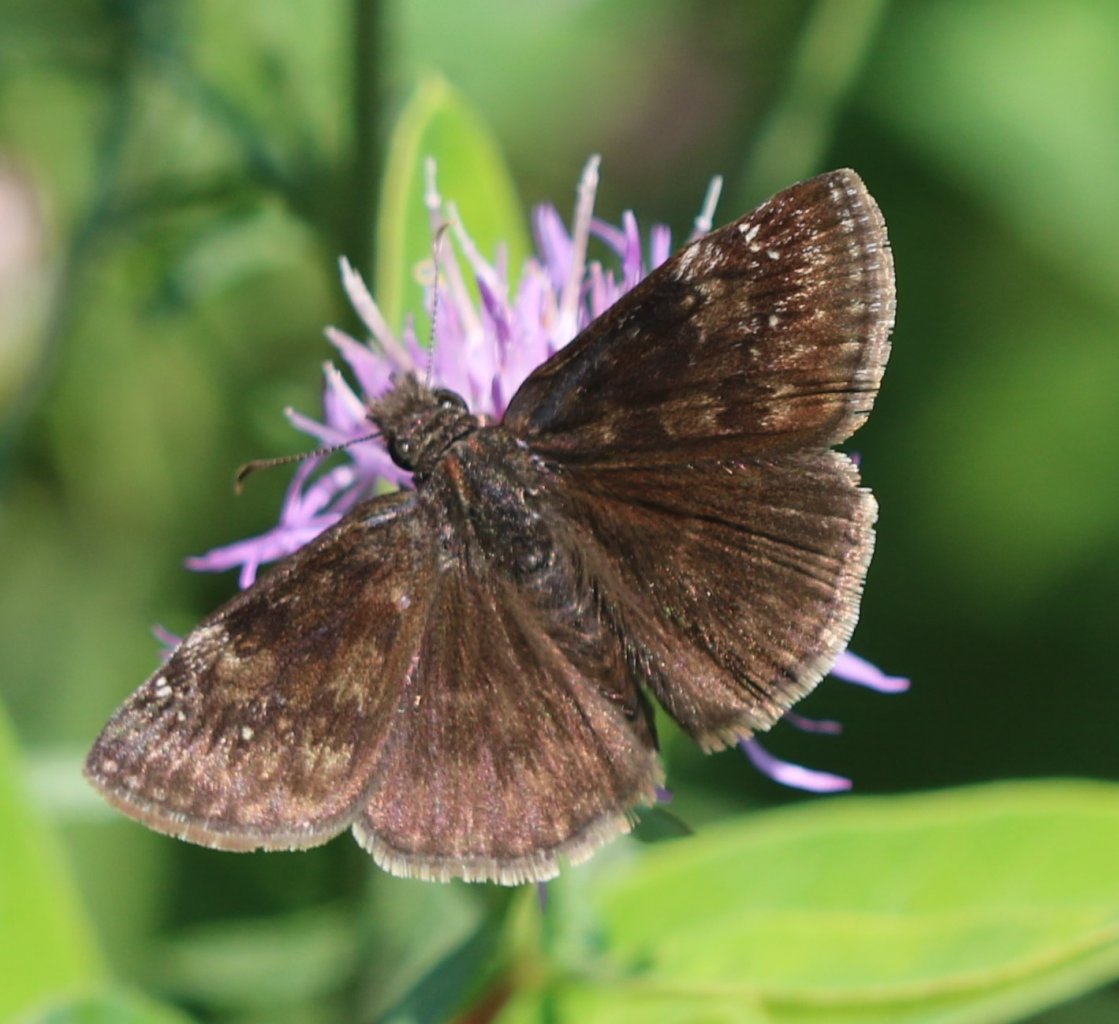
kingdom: Animalia
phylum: Arthropoda
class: Insecta
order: Lepidoptera
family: Hesperiidae
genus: Gesta
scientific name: Gesta
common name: Wild Indigo Duskywing
